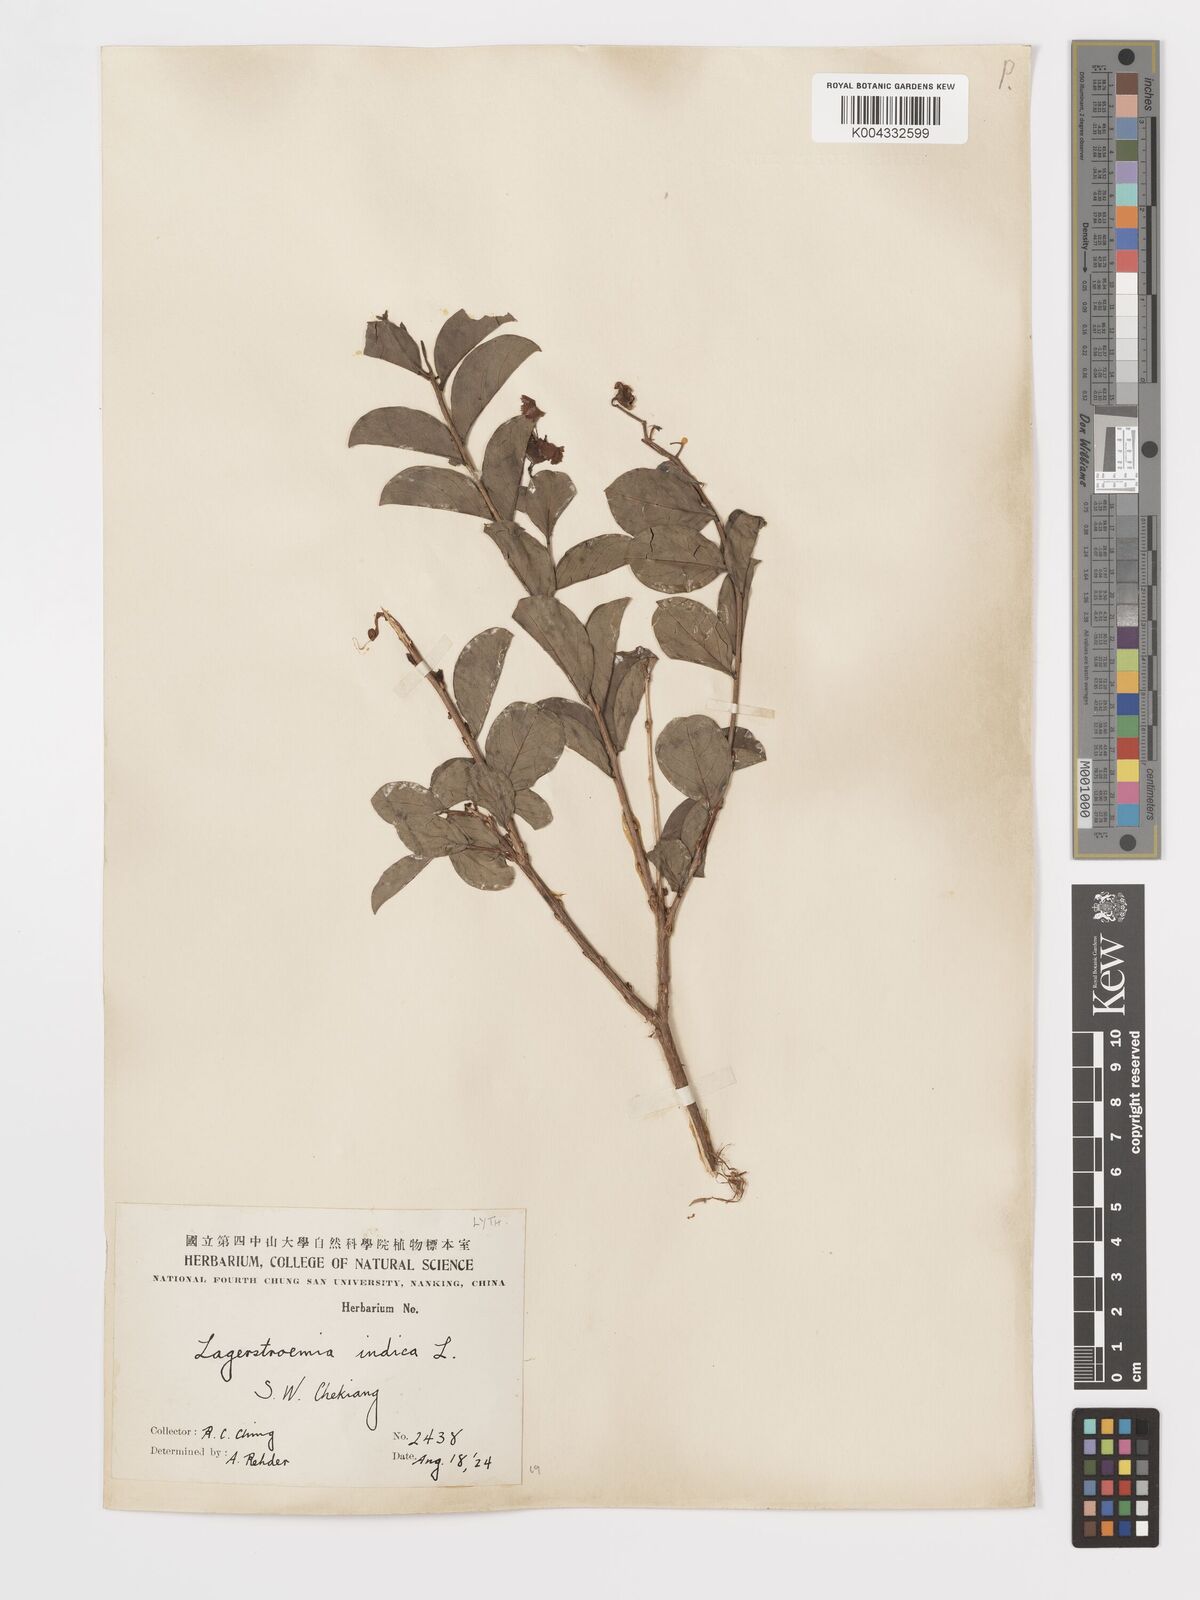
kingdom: Plantae
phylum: Tracheophyta
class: Magnoliopsida
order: Myrtales
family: Lythraceae
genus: Lagerstroemia
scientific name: Lagerstroemia indica
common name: Crape-myrtle
